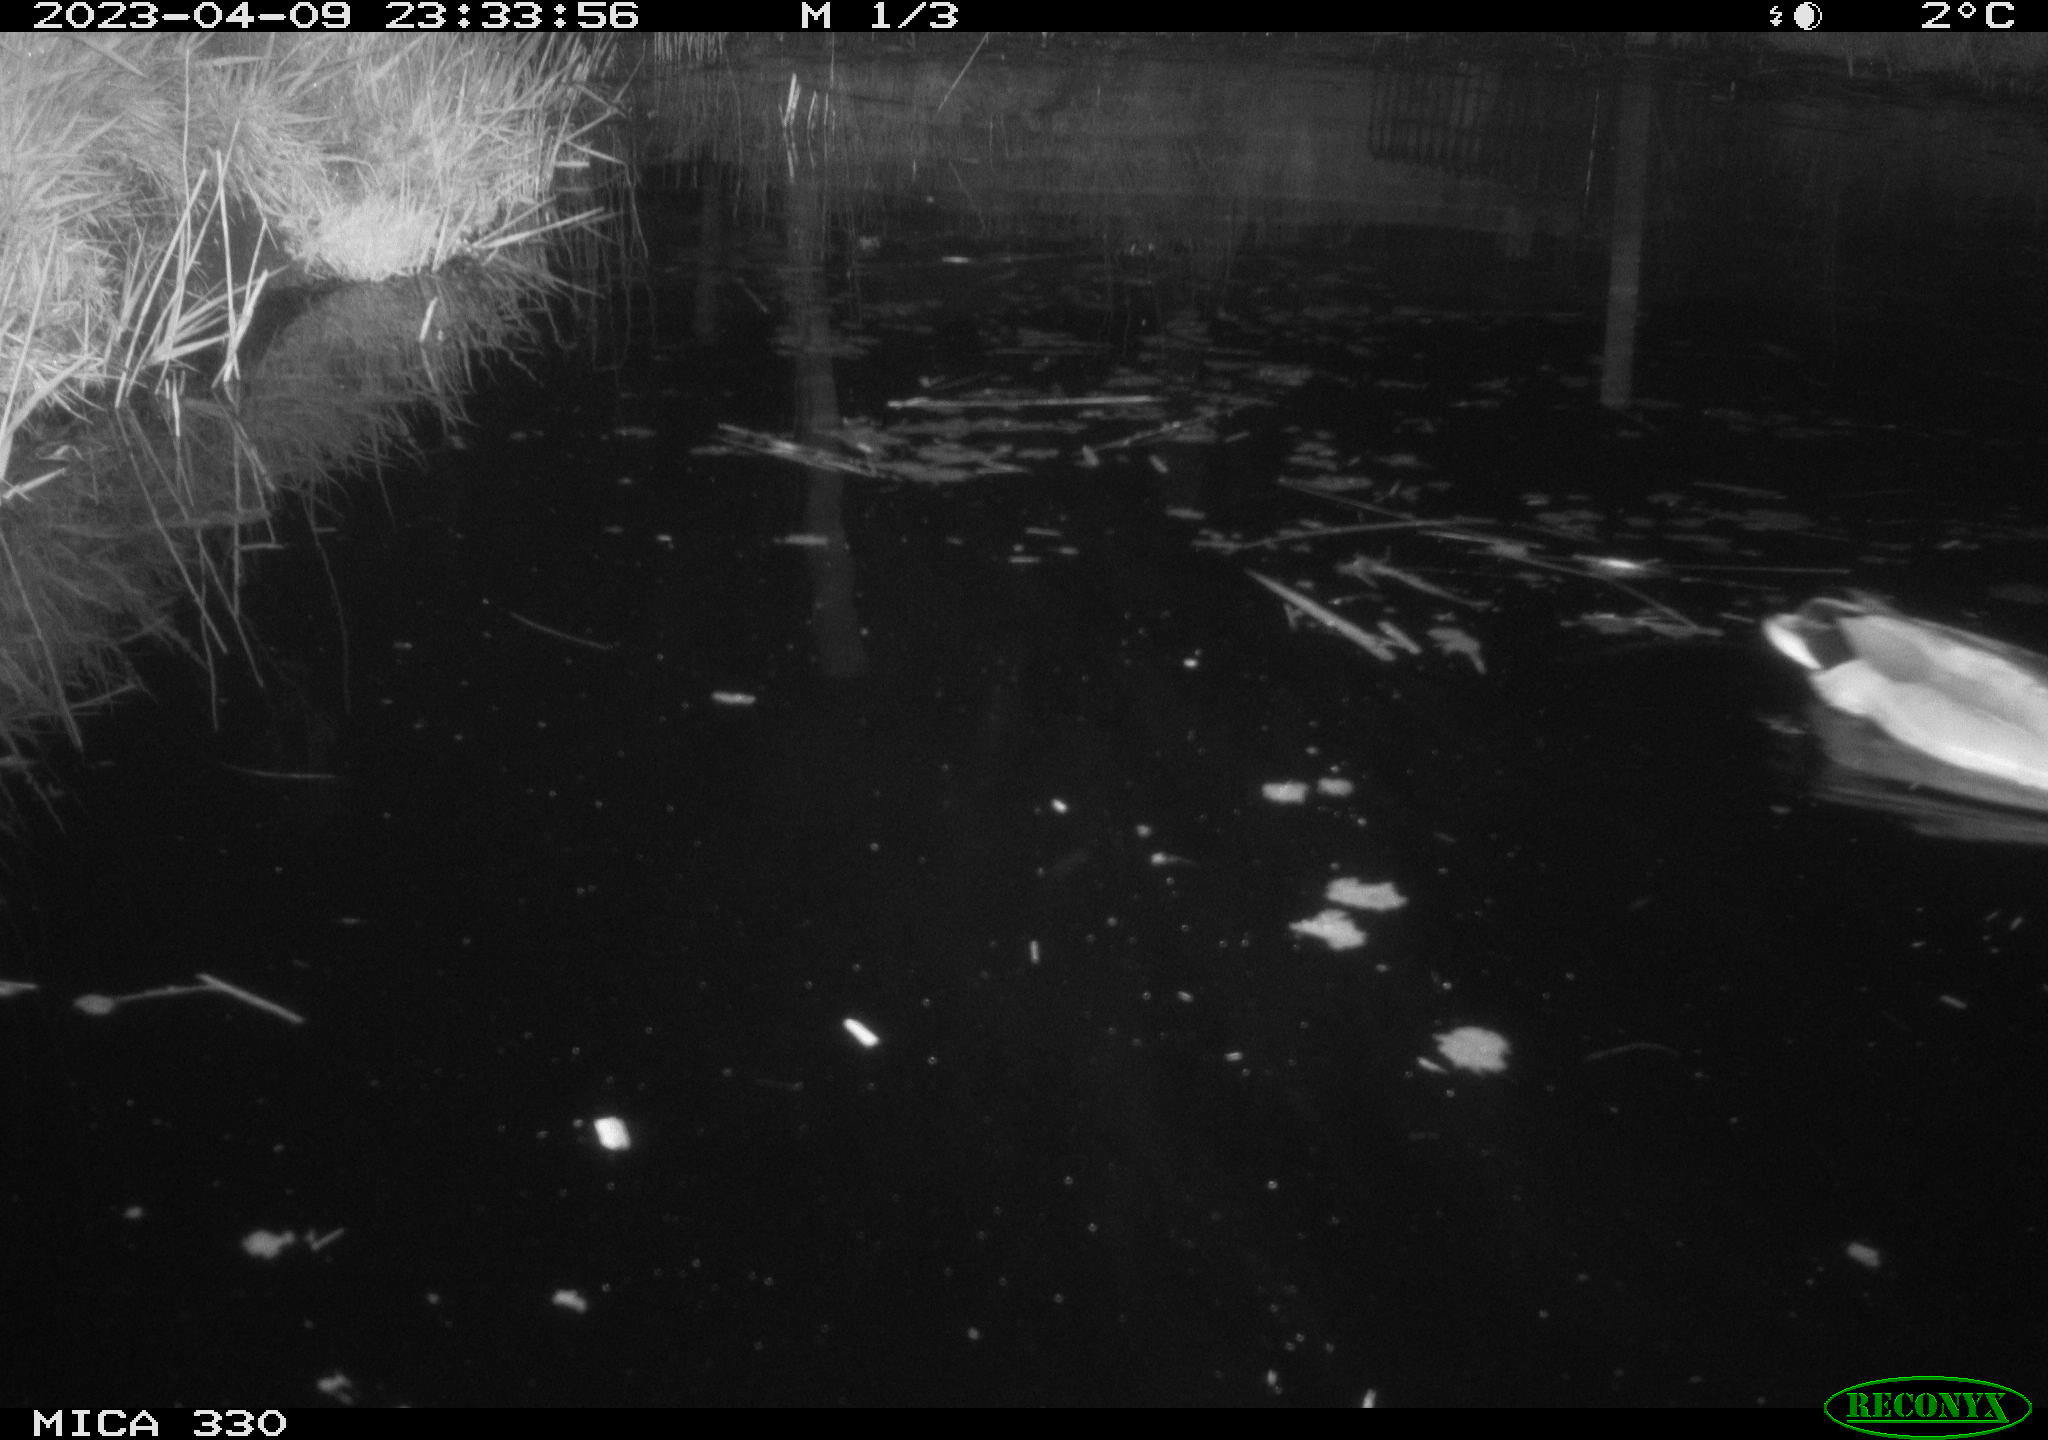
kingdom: Animalia
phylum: Chordata
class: Aves
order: Anseriformes
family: Anatidae
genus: Anas
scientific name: Anas
